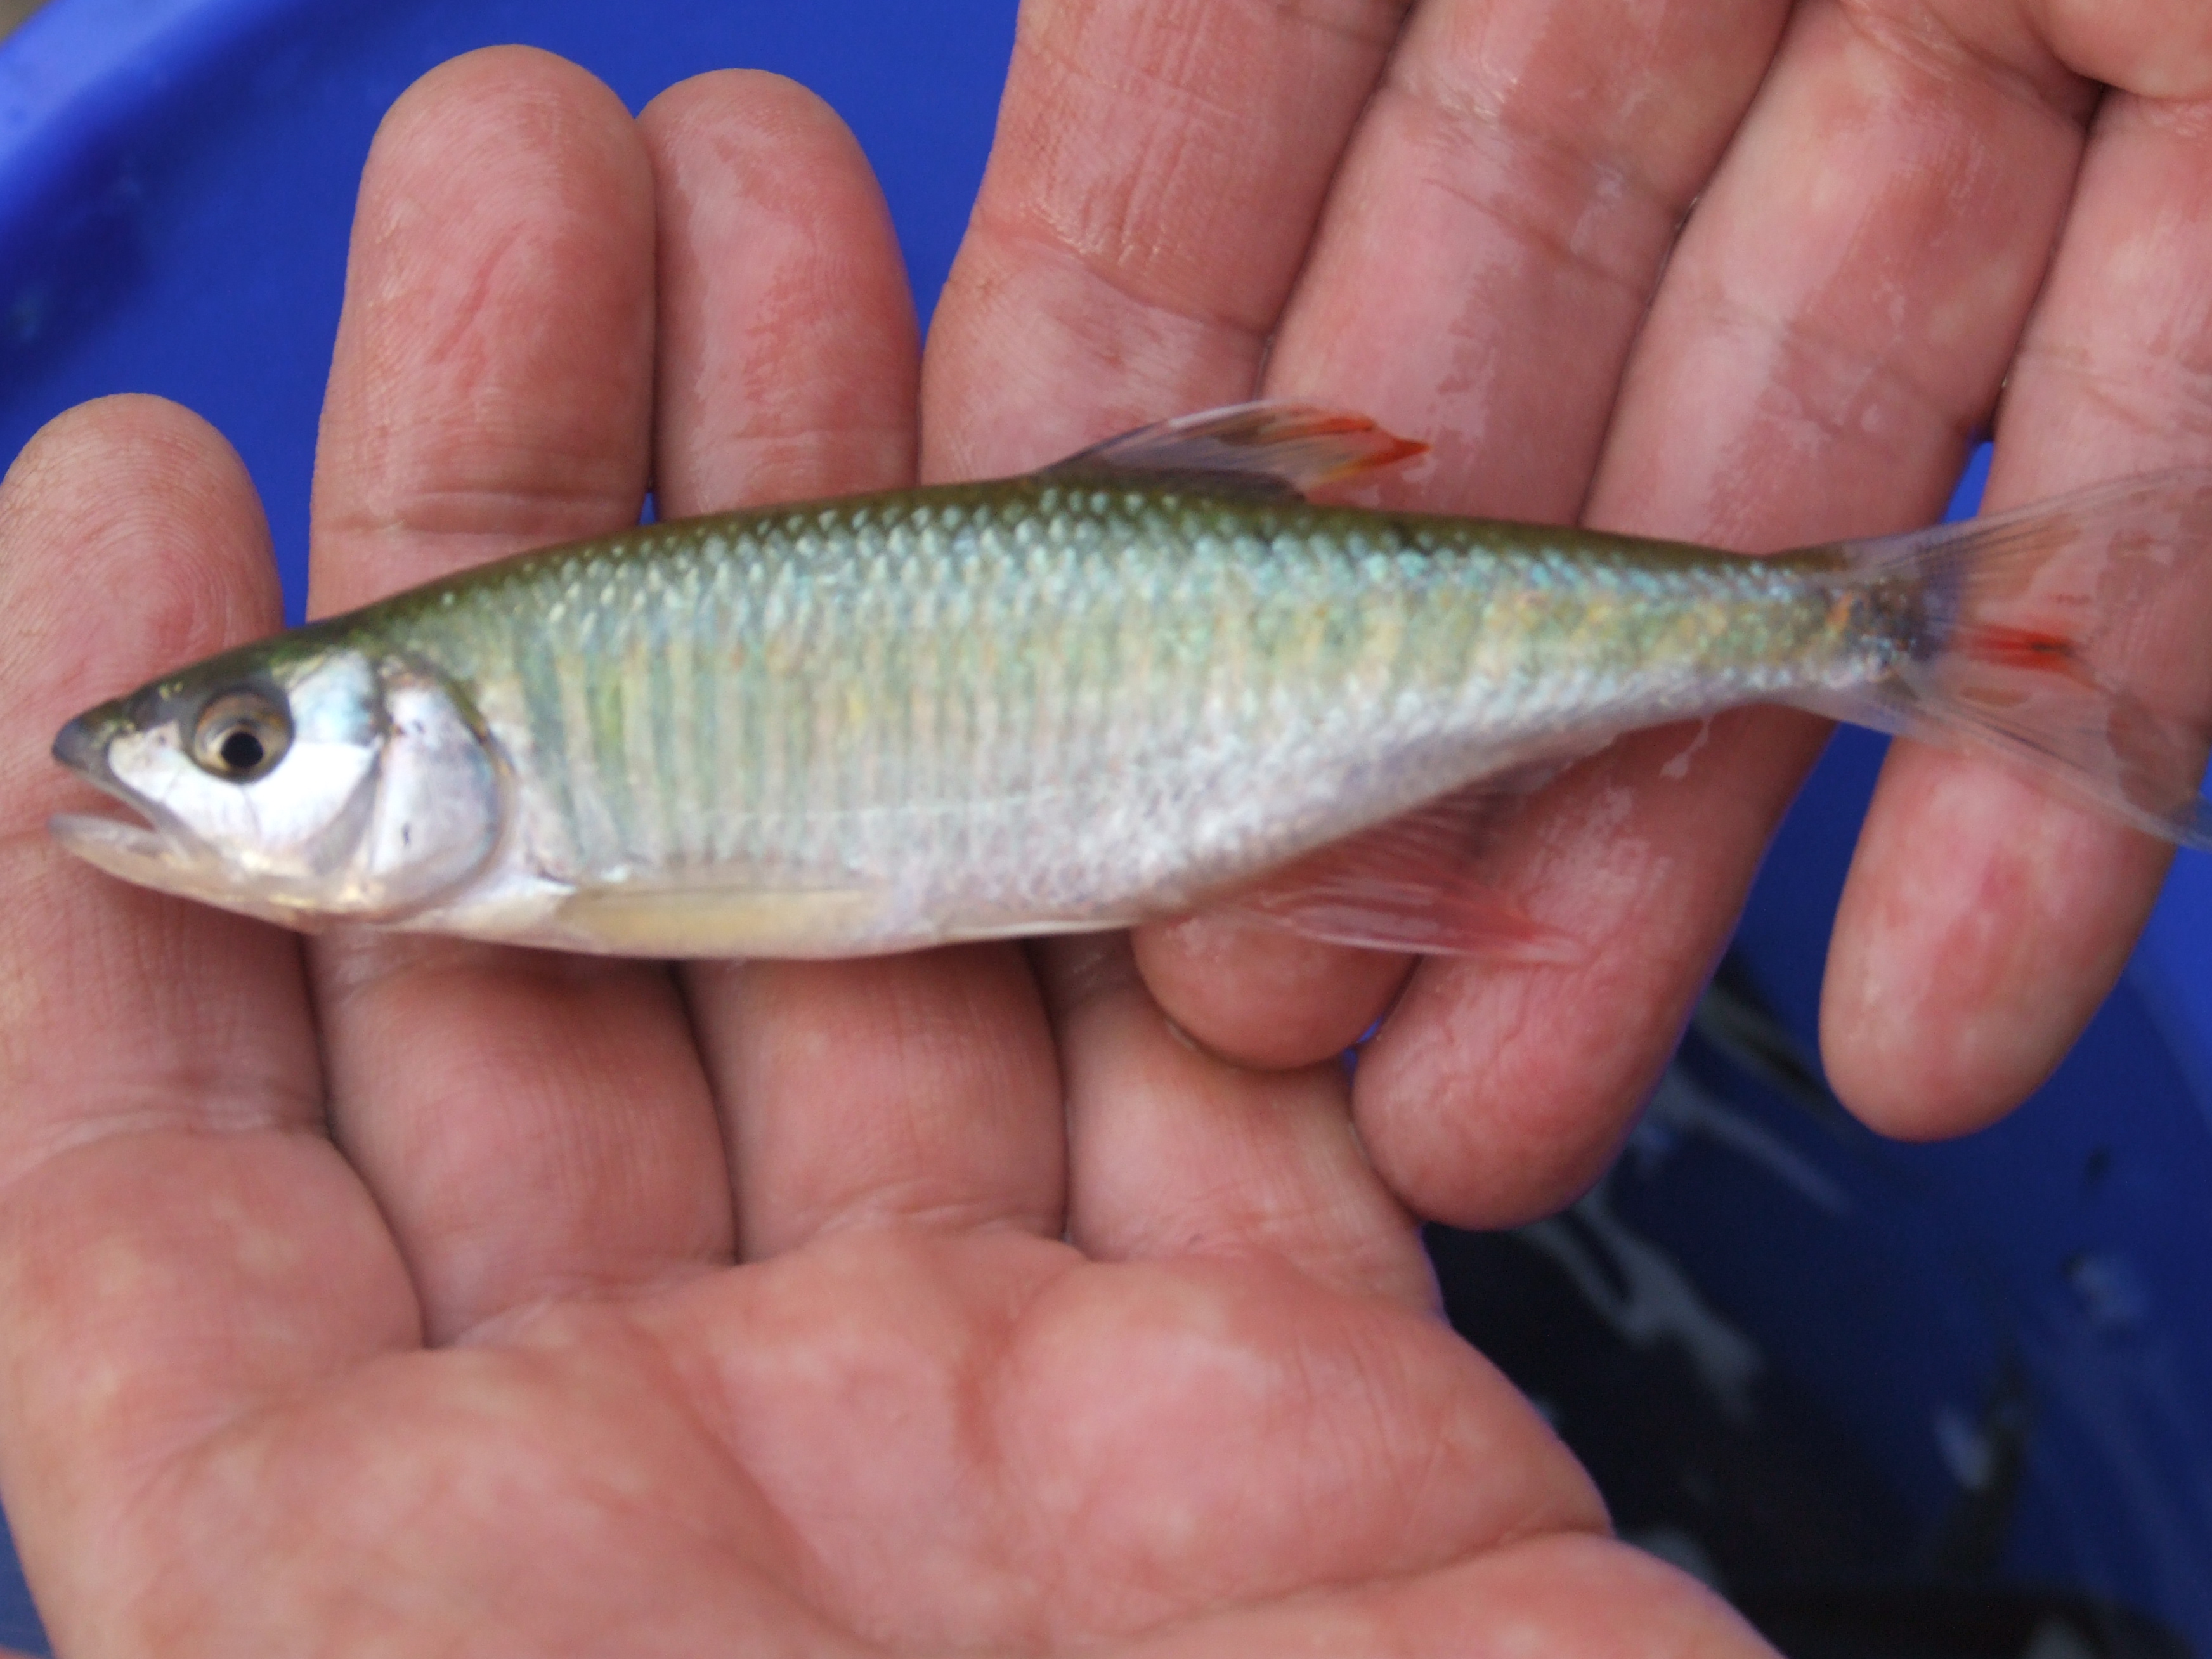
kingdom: Animalia
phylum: Chordata
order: Cypriniformes
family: Cyprinidae
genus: Opsaridium
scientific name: Opsaridium zambezense
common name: Barred minnow
